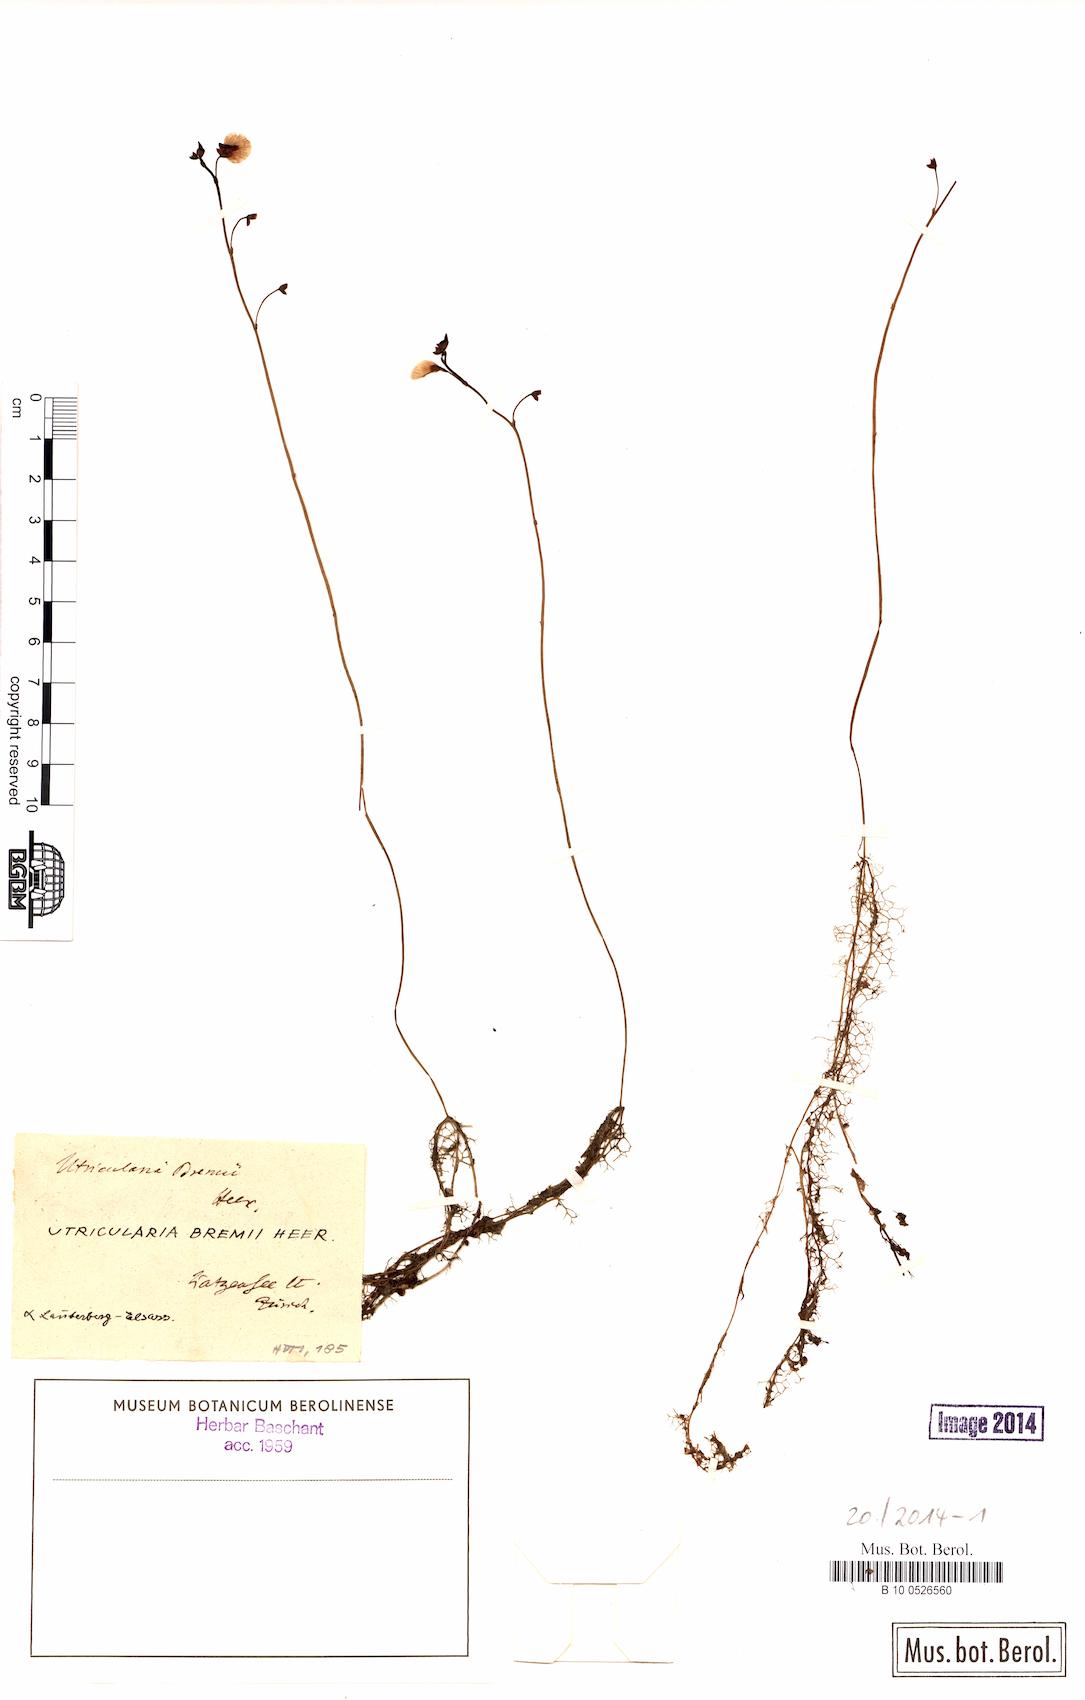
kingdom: Plantae
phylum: Tracheophyta
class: Magnoliopsida
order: Lamiales
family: Lentibulariaceae
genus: Utricularia
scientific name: Utricularia bremii
